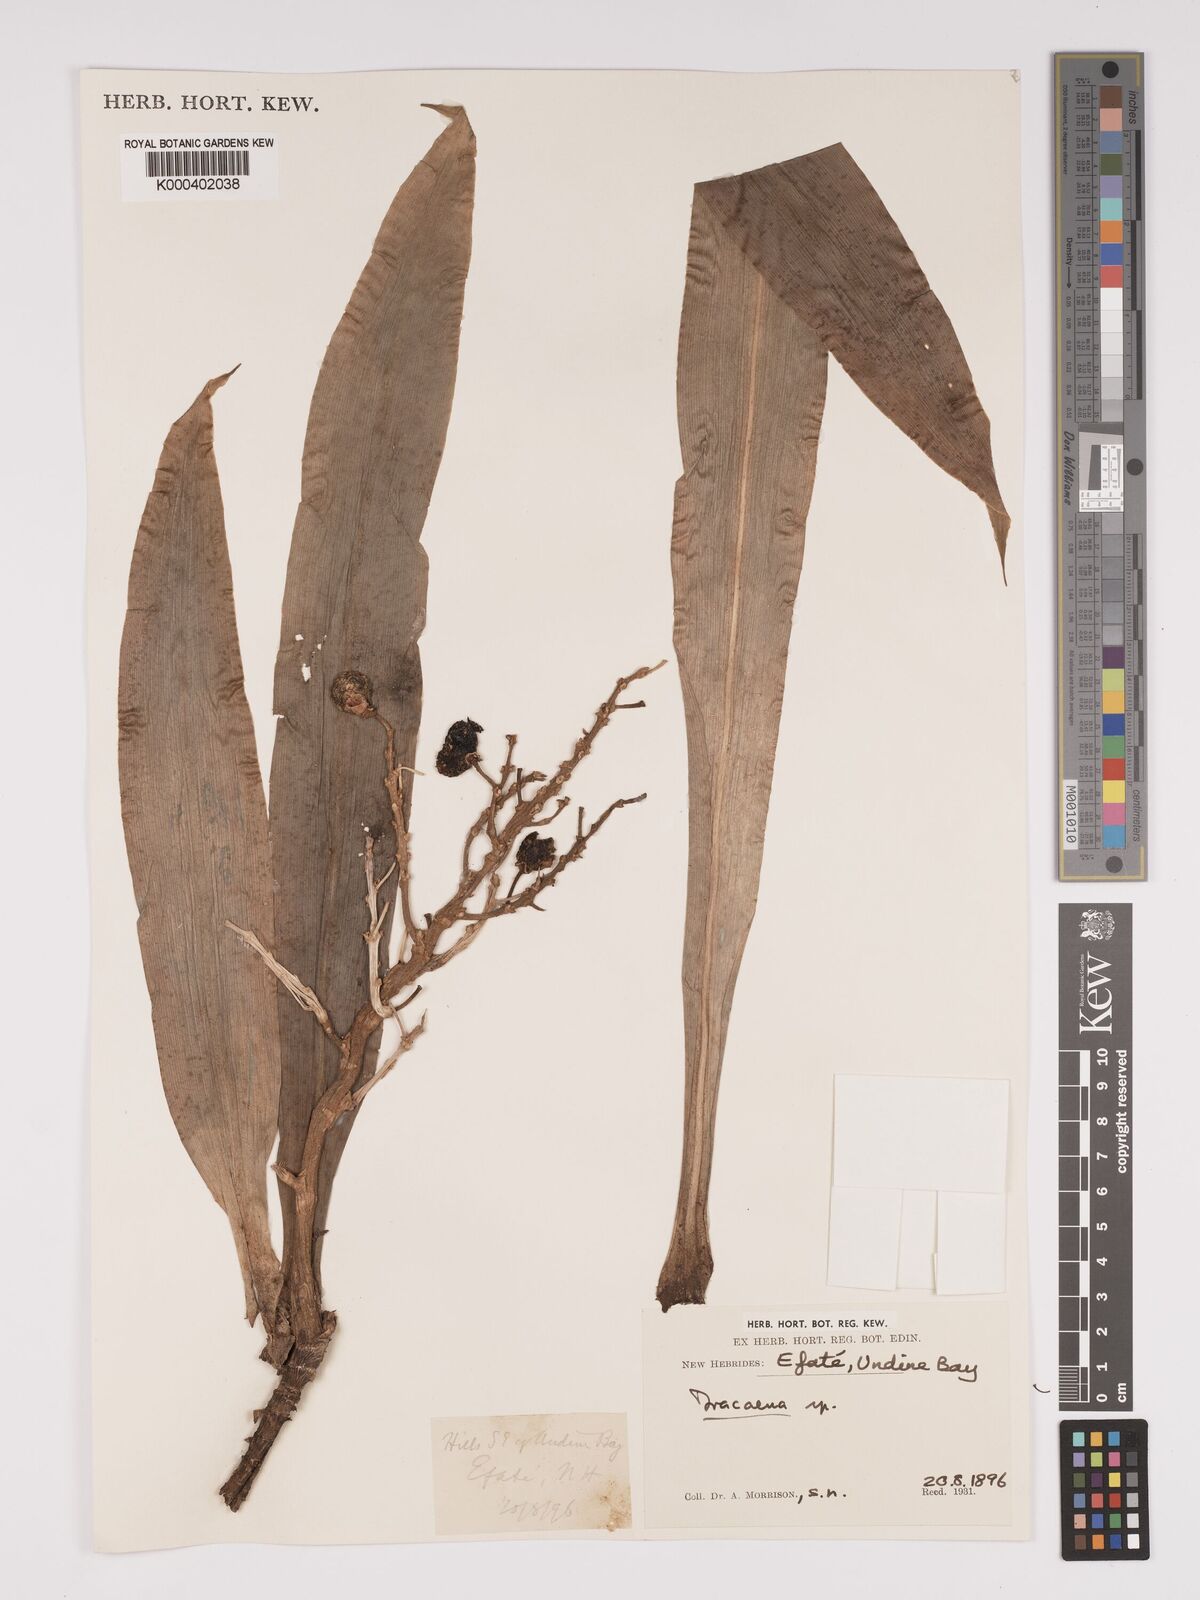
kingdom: Plantae
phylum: Tracheophyta
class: Liliopsida
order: Asparagales
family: Asparagaceae
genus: Dracaena
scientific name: Dracaena
